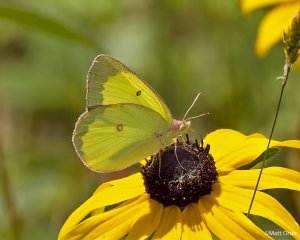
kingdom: Animalia
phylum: Arthropoda
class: Insecta
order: Lepidoptera
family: Pieridae
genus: Colias
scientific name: Colias interior
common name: Pink-edged Sulphur
